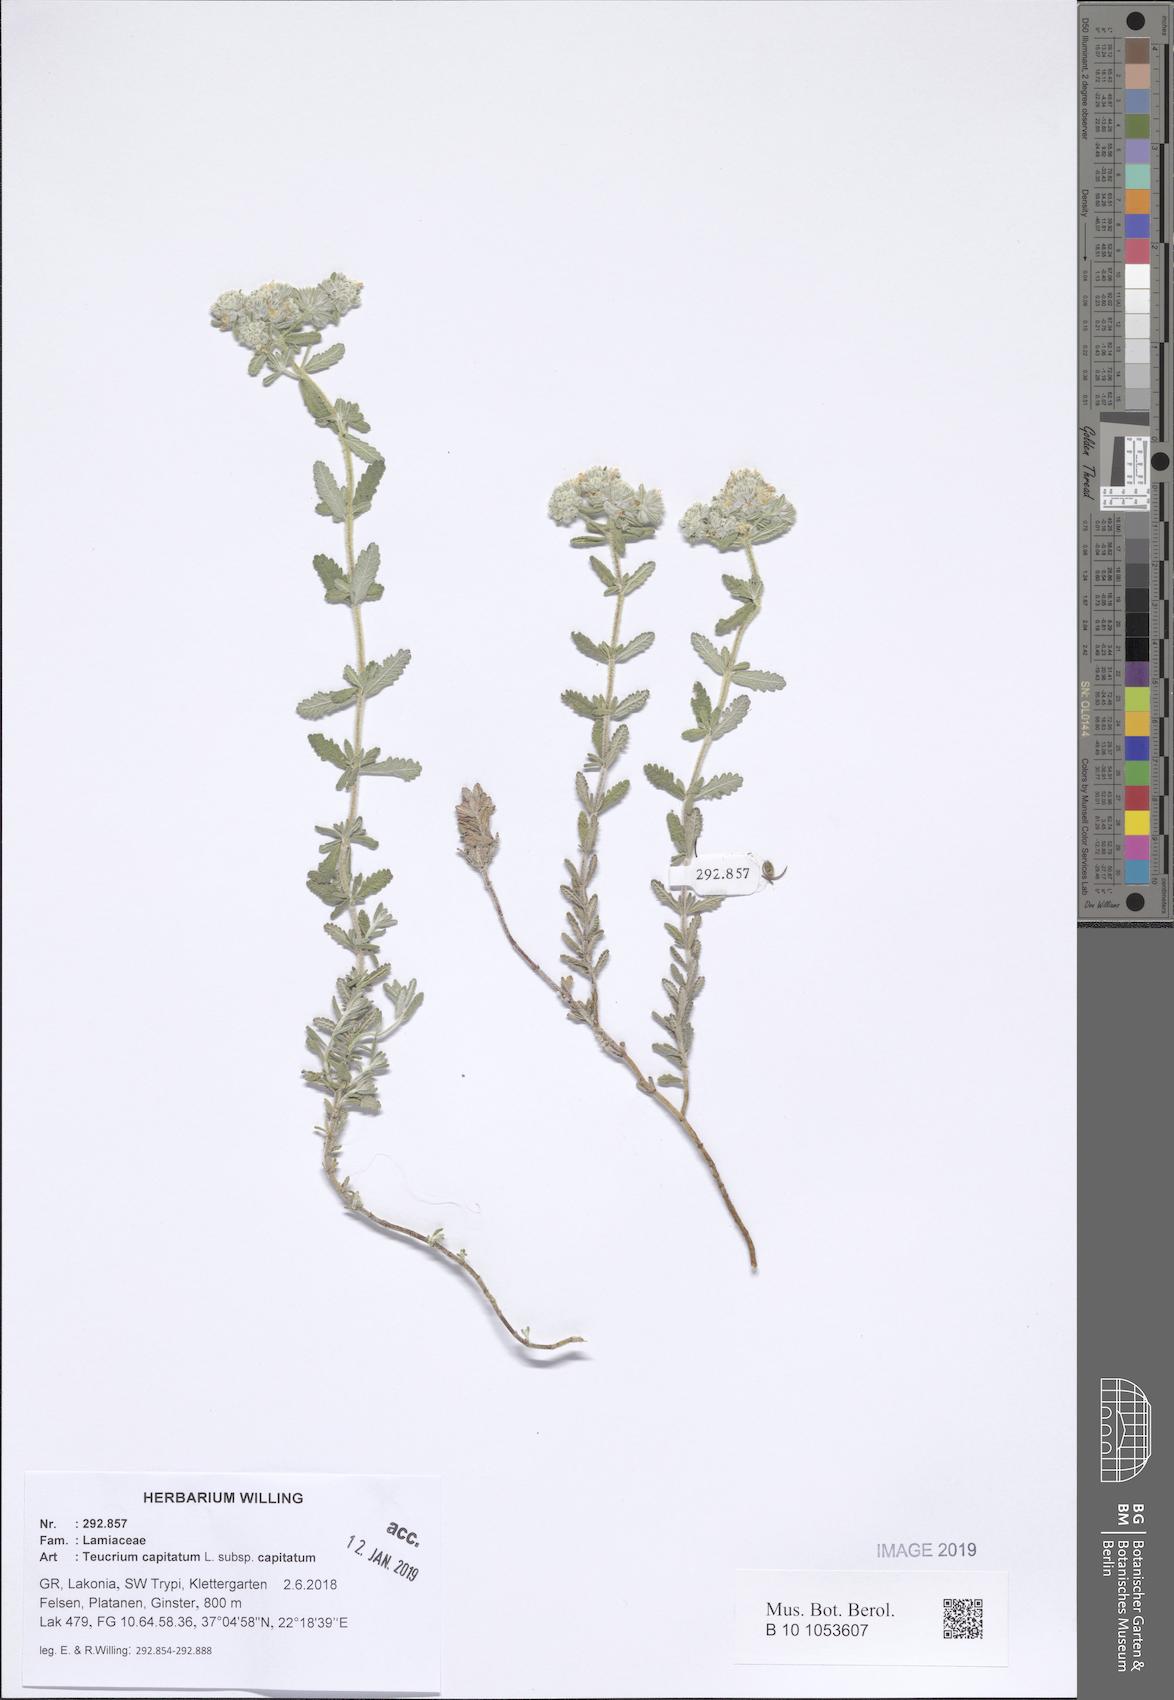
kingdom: Plantae
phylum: Tracheophyta
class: Magnoliopsida
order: Lamiales
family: Lamiaceae
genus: Teucrium
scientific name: Teucrium capitatum
